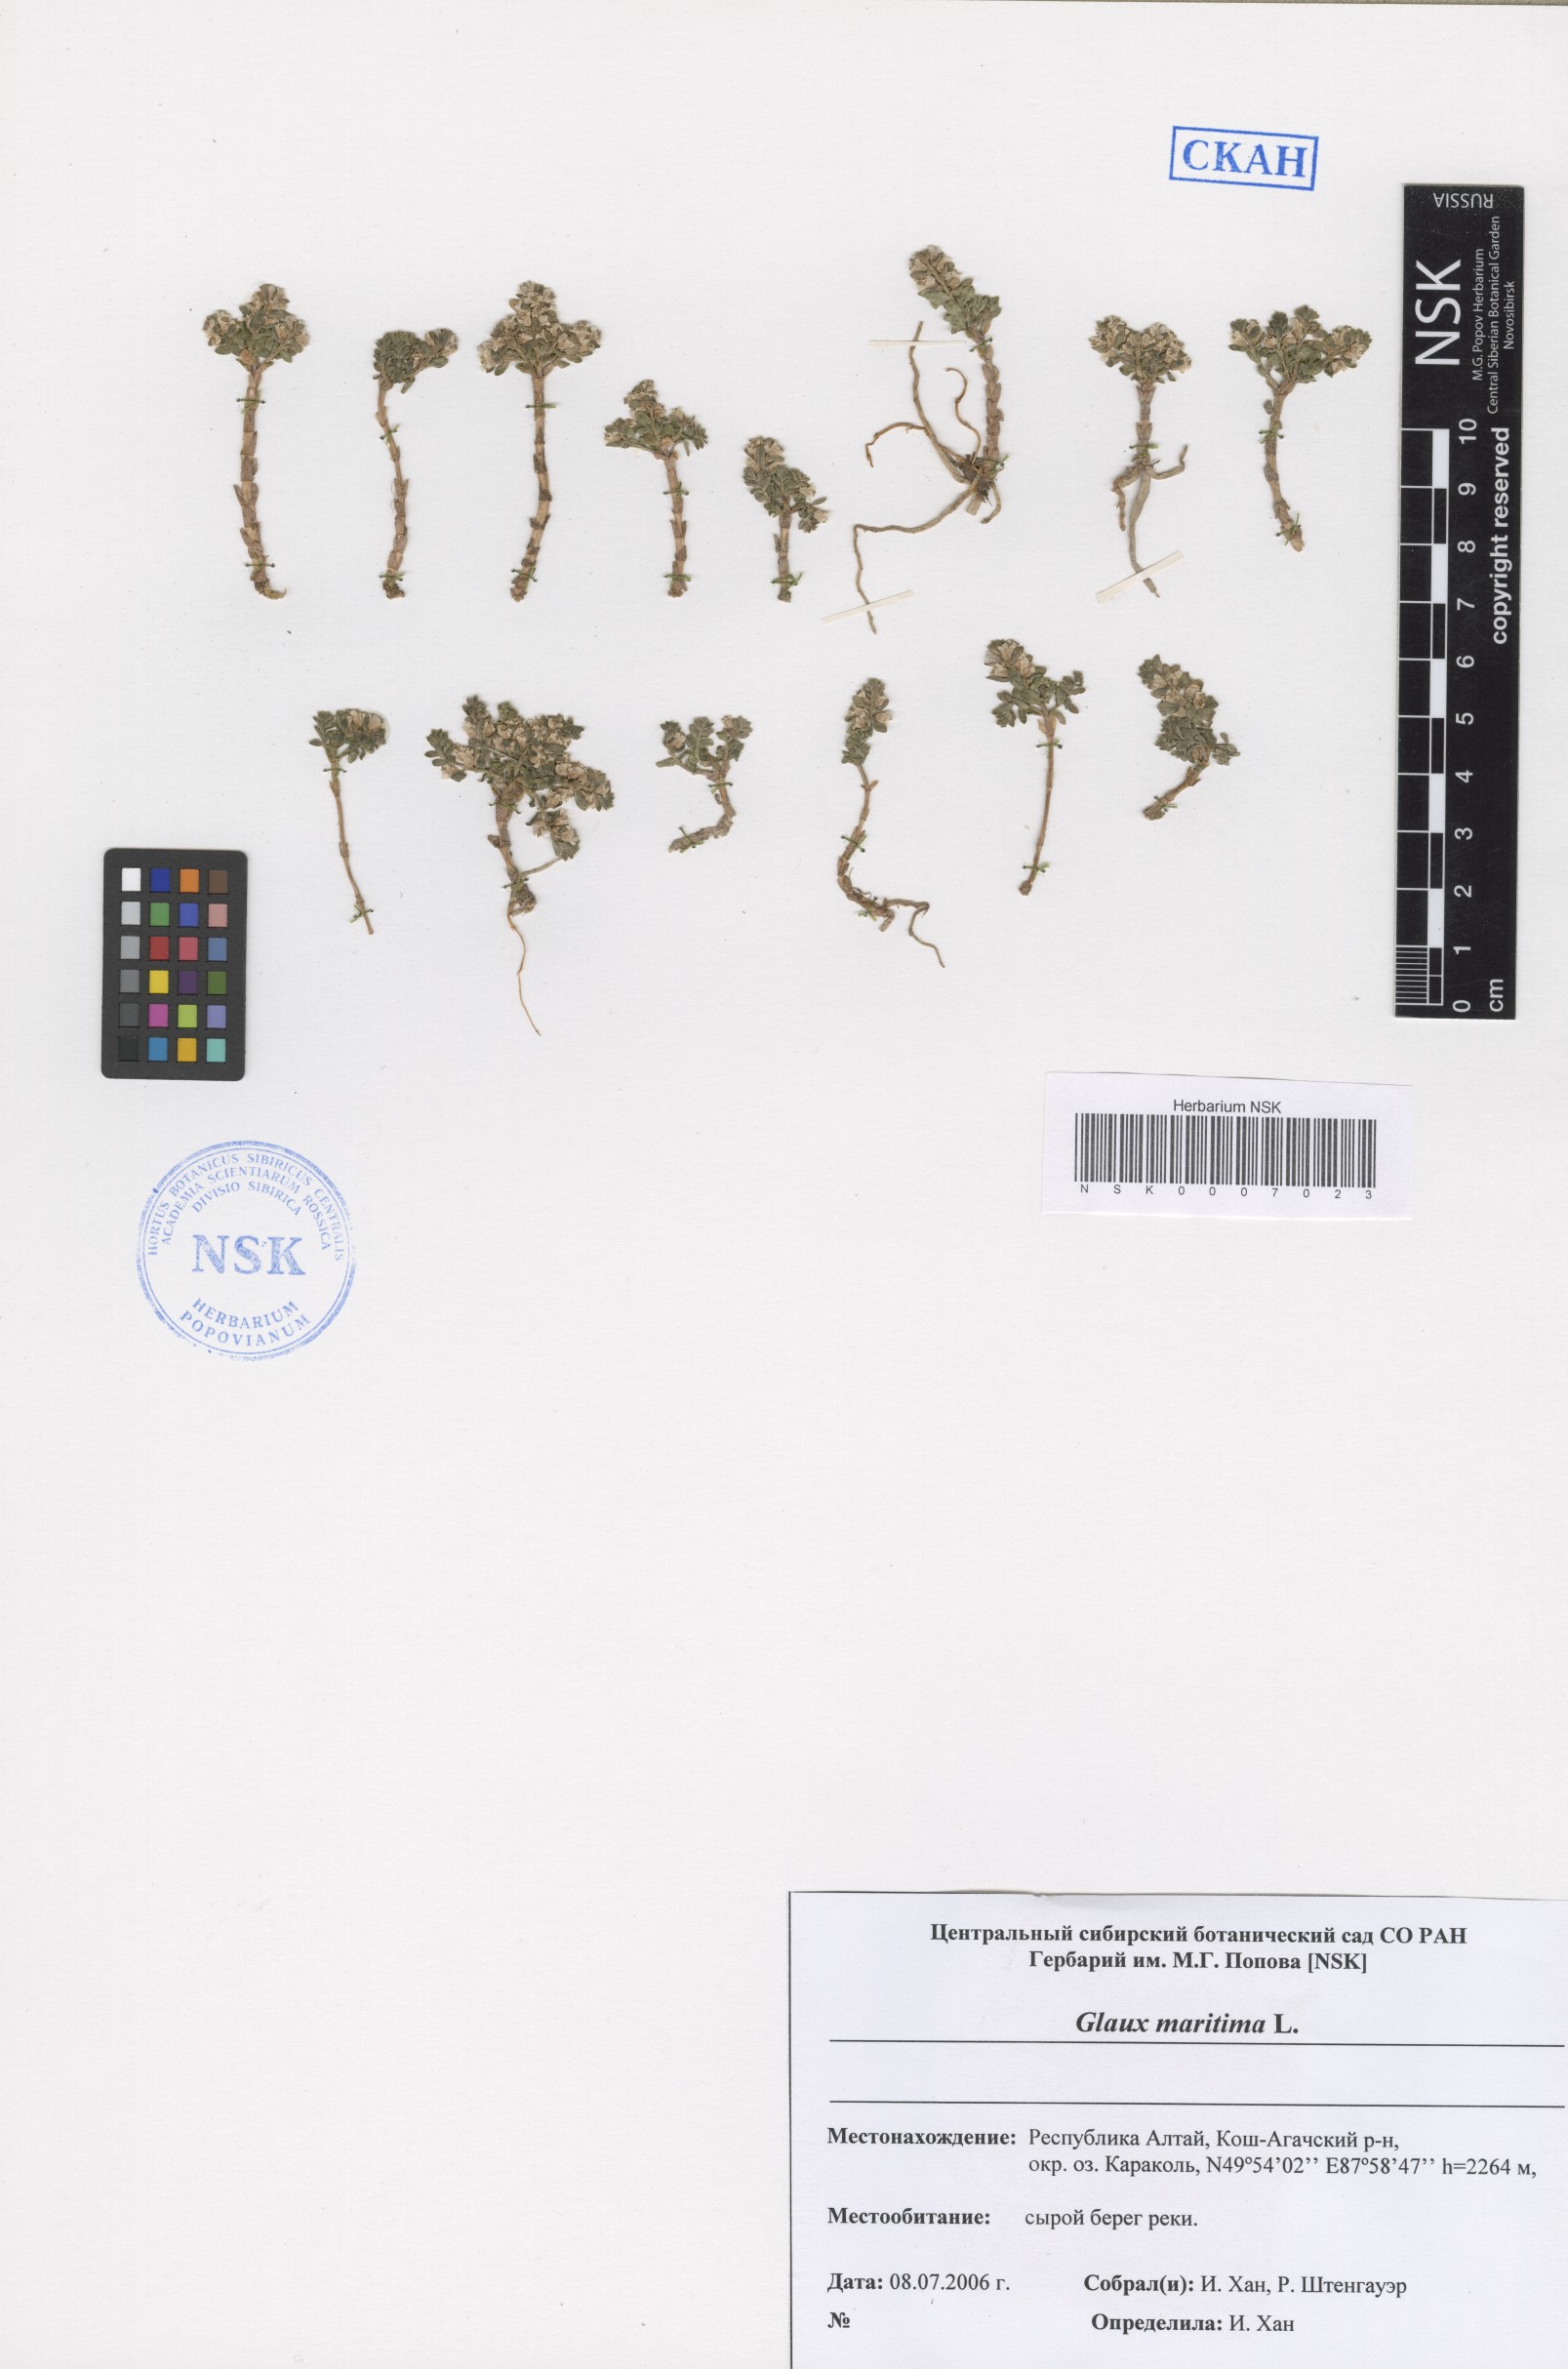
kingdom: Plantae
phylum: Tracheophyta
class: Magnoliopsida
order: Ericales
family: Primulaceae
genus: Lysimachia
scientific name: Lysimachia maritima
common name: Sea milkwort
